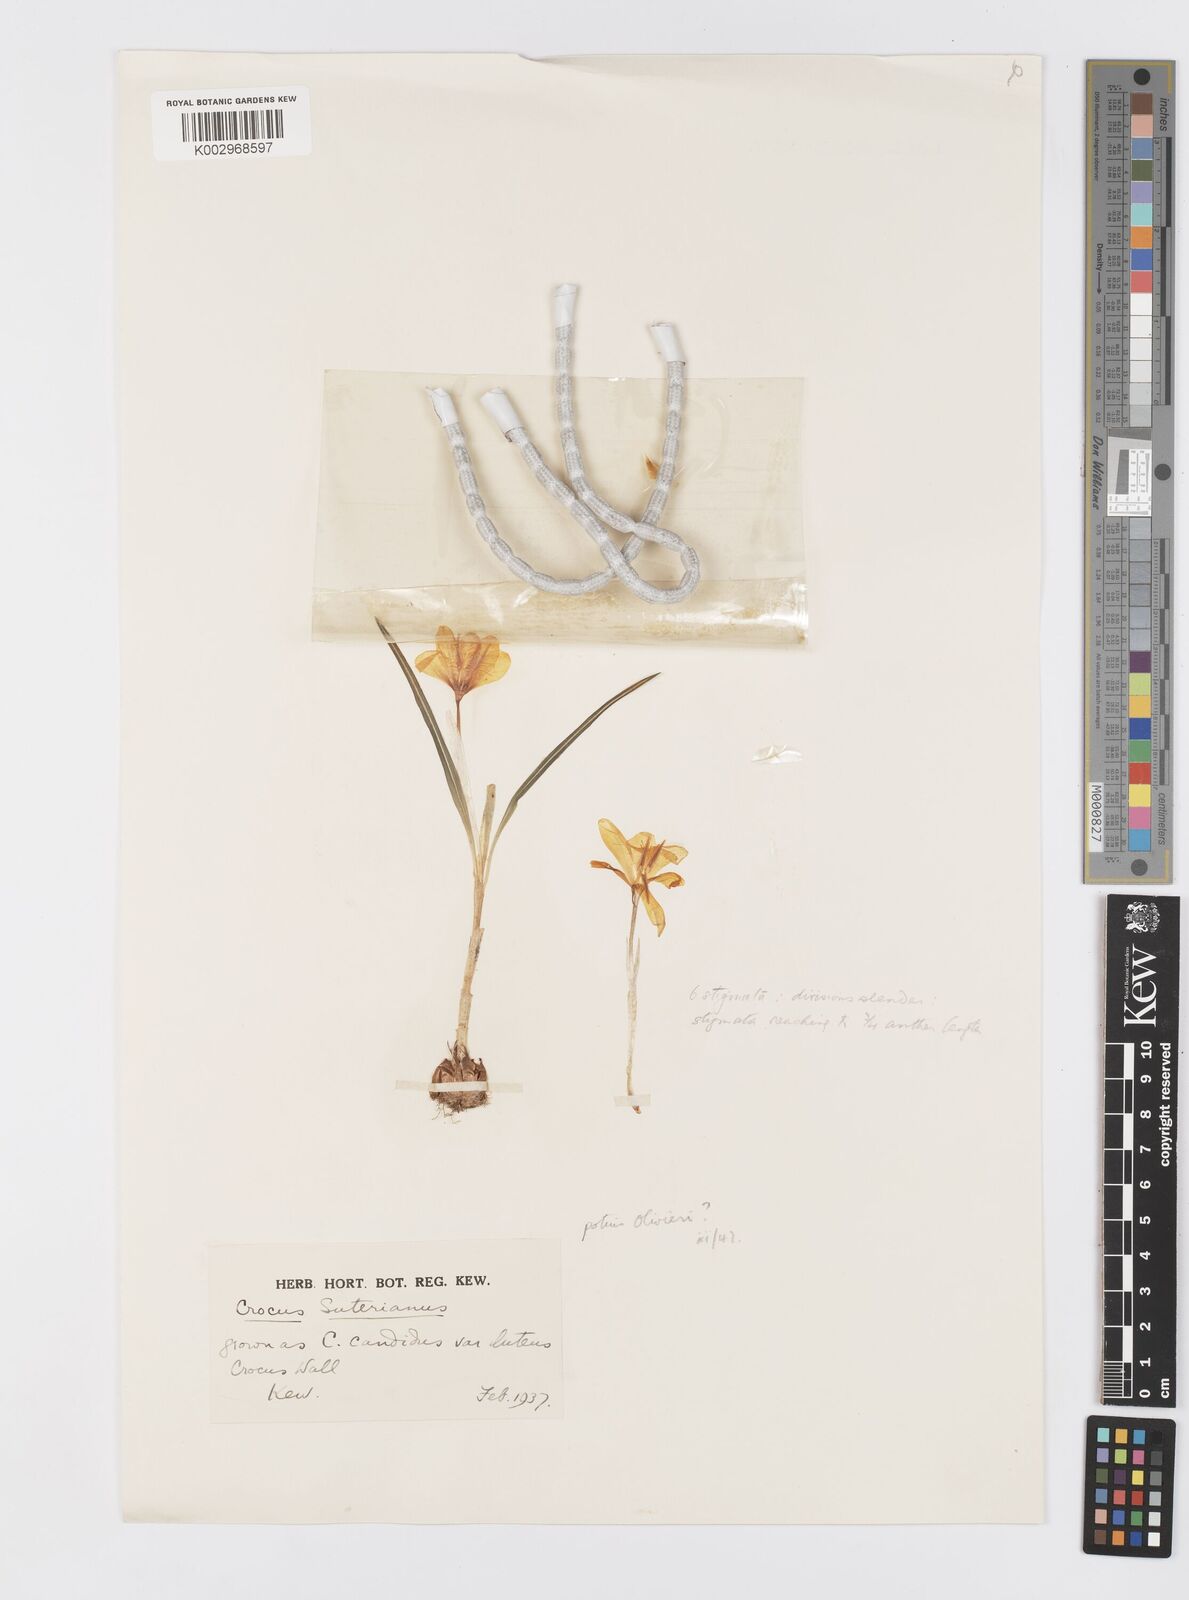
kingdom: Plantae
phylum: Tracheophyta
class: Liliopsida
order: Asparagales
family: Iridaceae
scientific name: Iridaceae
